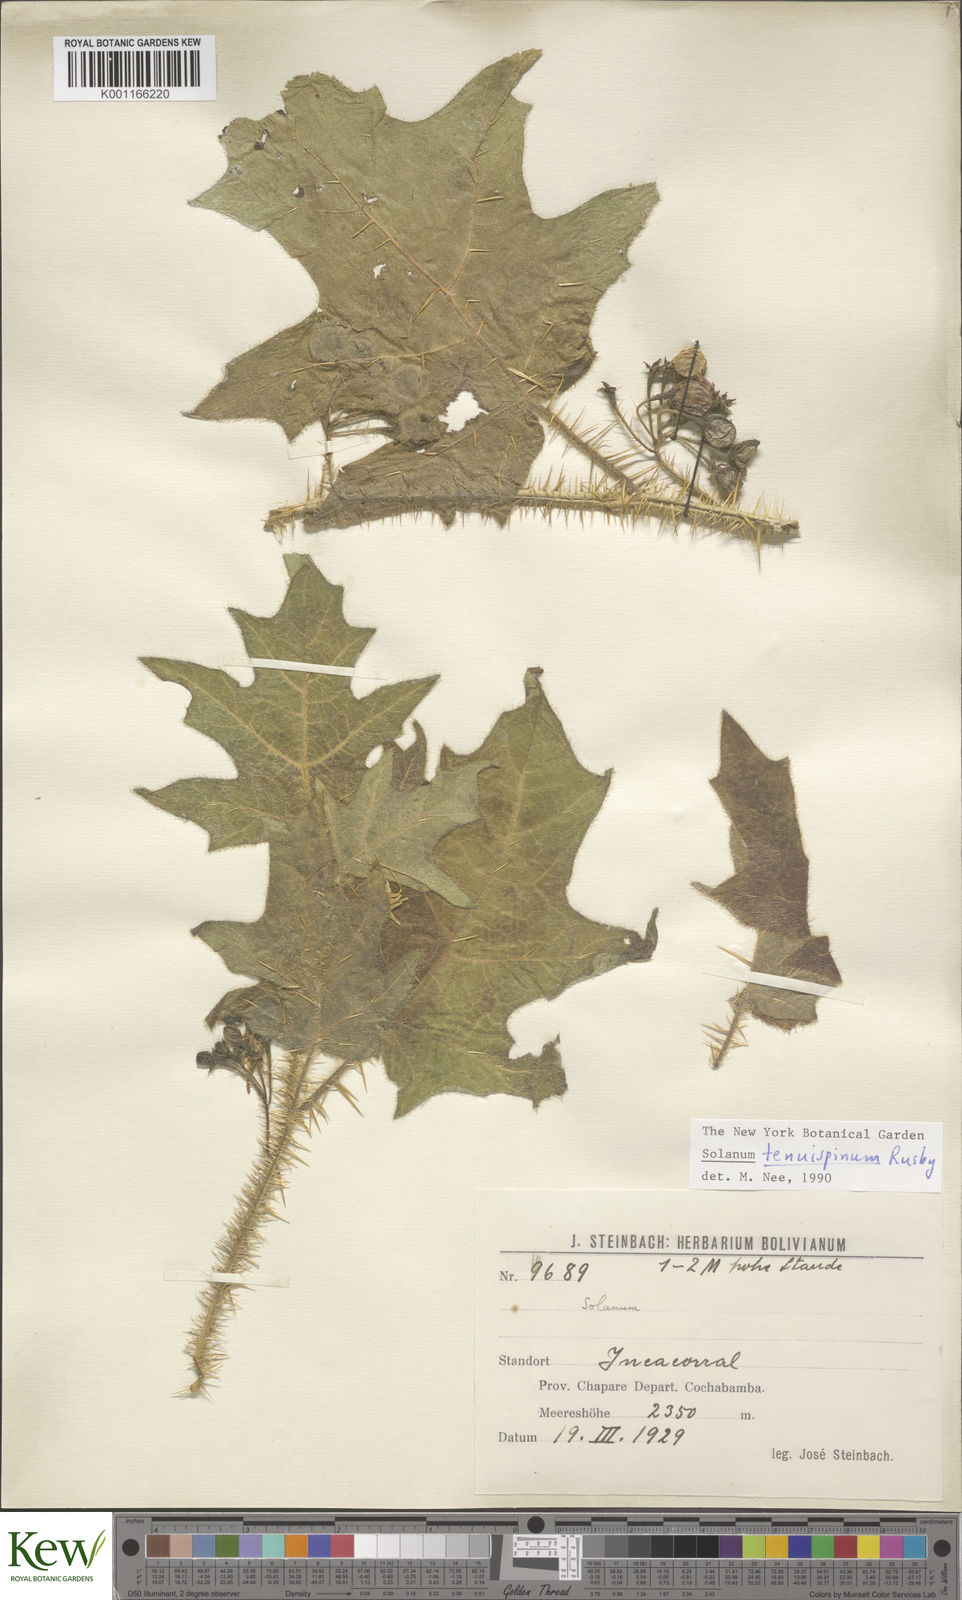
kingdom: Plantae
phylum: Tracheophyta
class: Magnoliopsida
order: Solanales
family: Solanaceae
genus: Solanum
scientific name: Solanum tenuispinum
